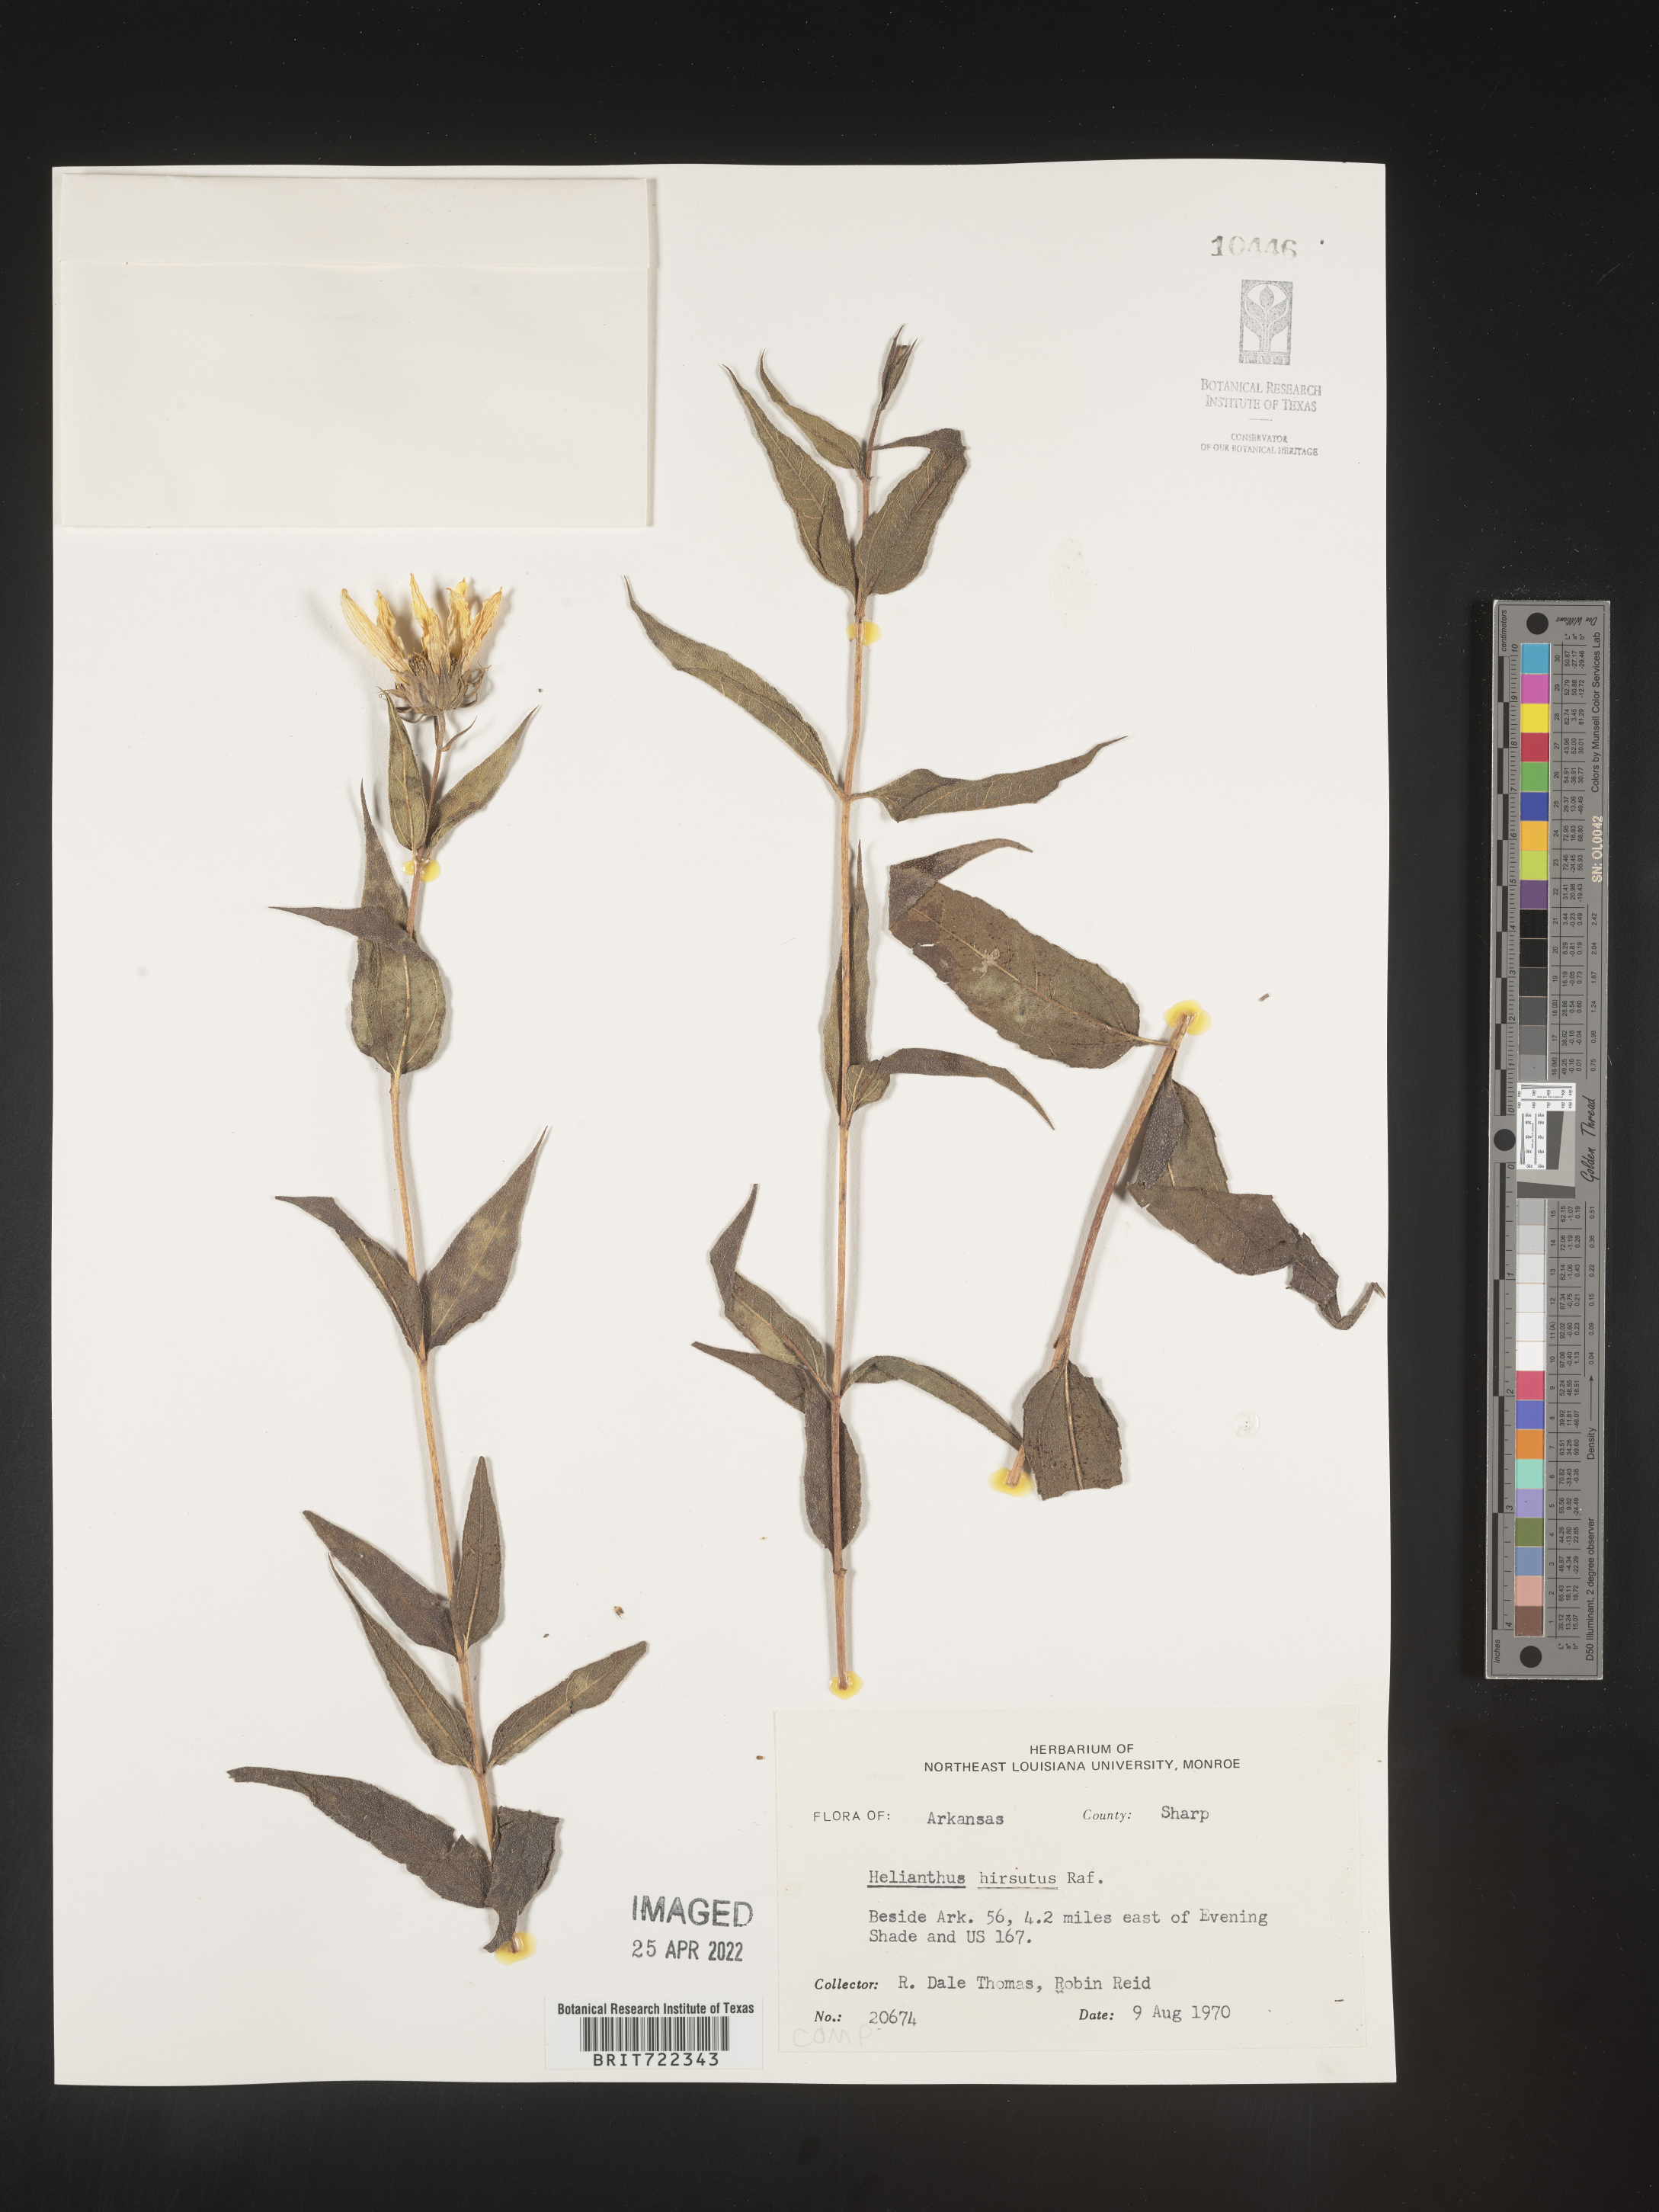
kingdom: Plantae
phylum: Tracheophyta
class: Magnoliopsida
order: Asterales
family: Asteraceae
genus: Helianthus
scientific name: Helianthus hirsutus
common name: Hairy sunflower
